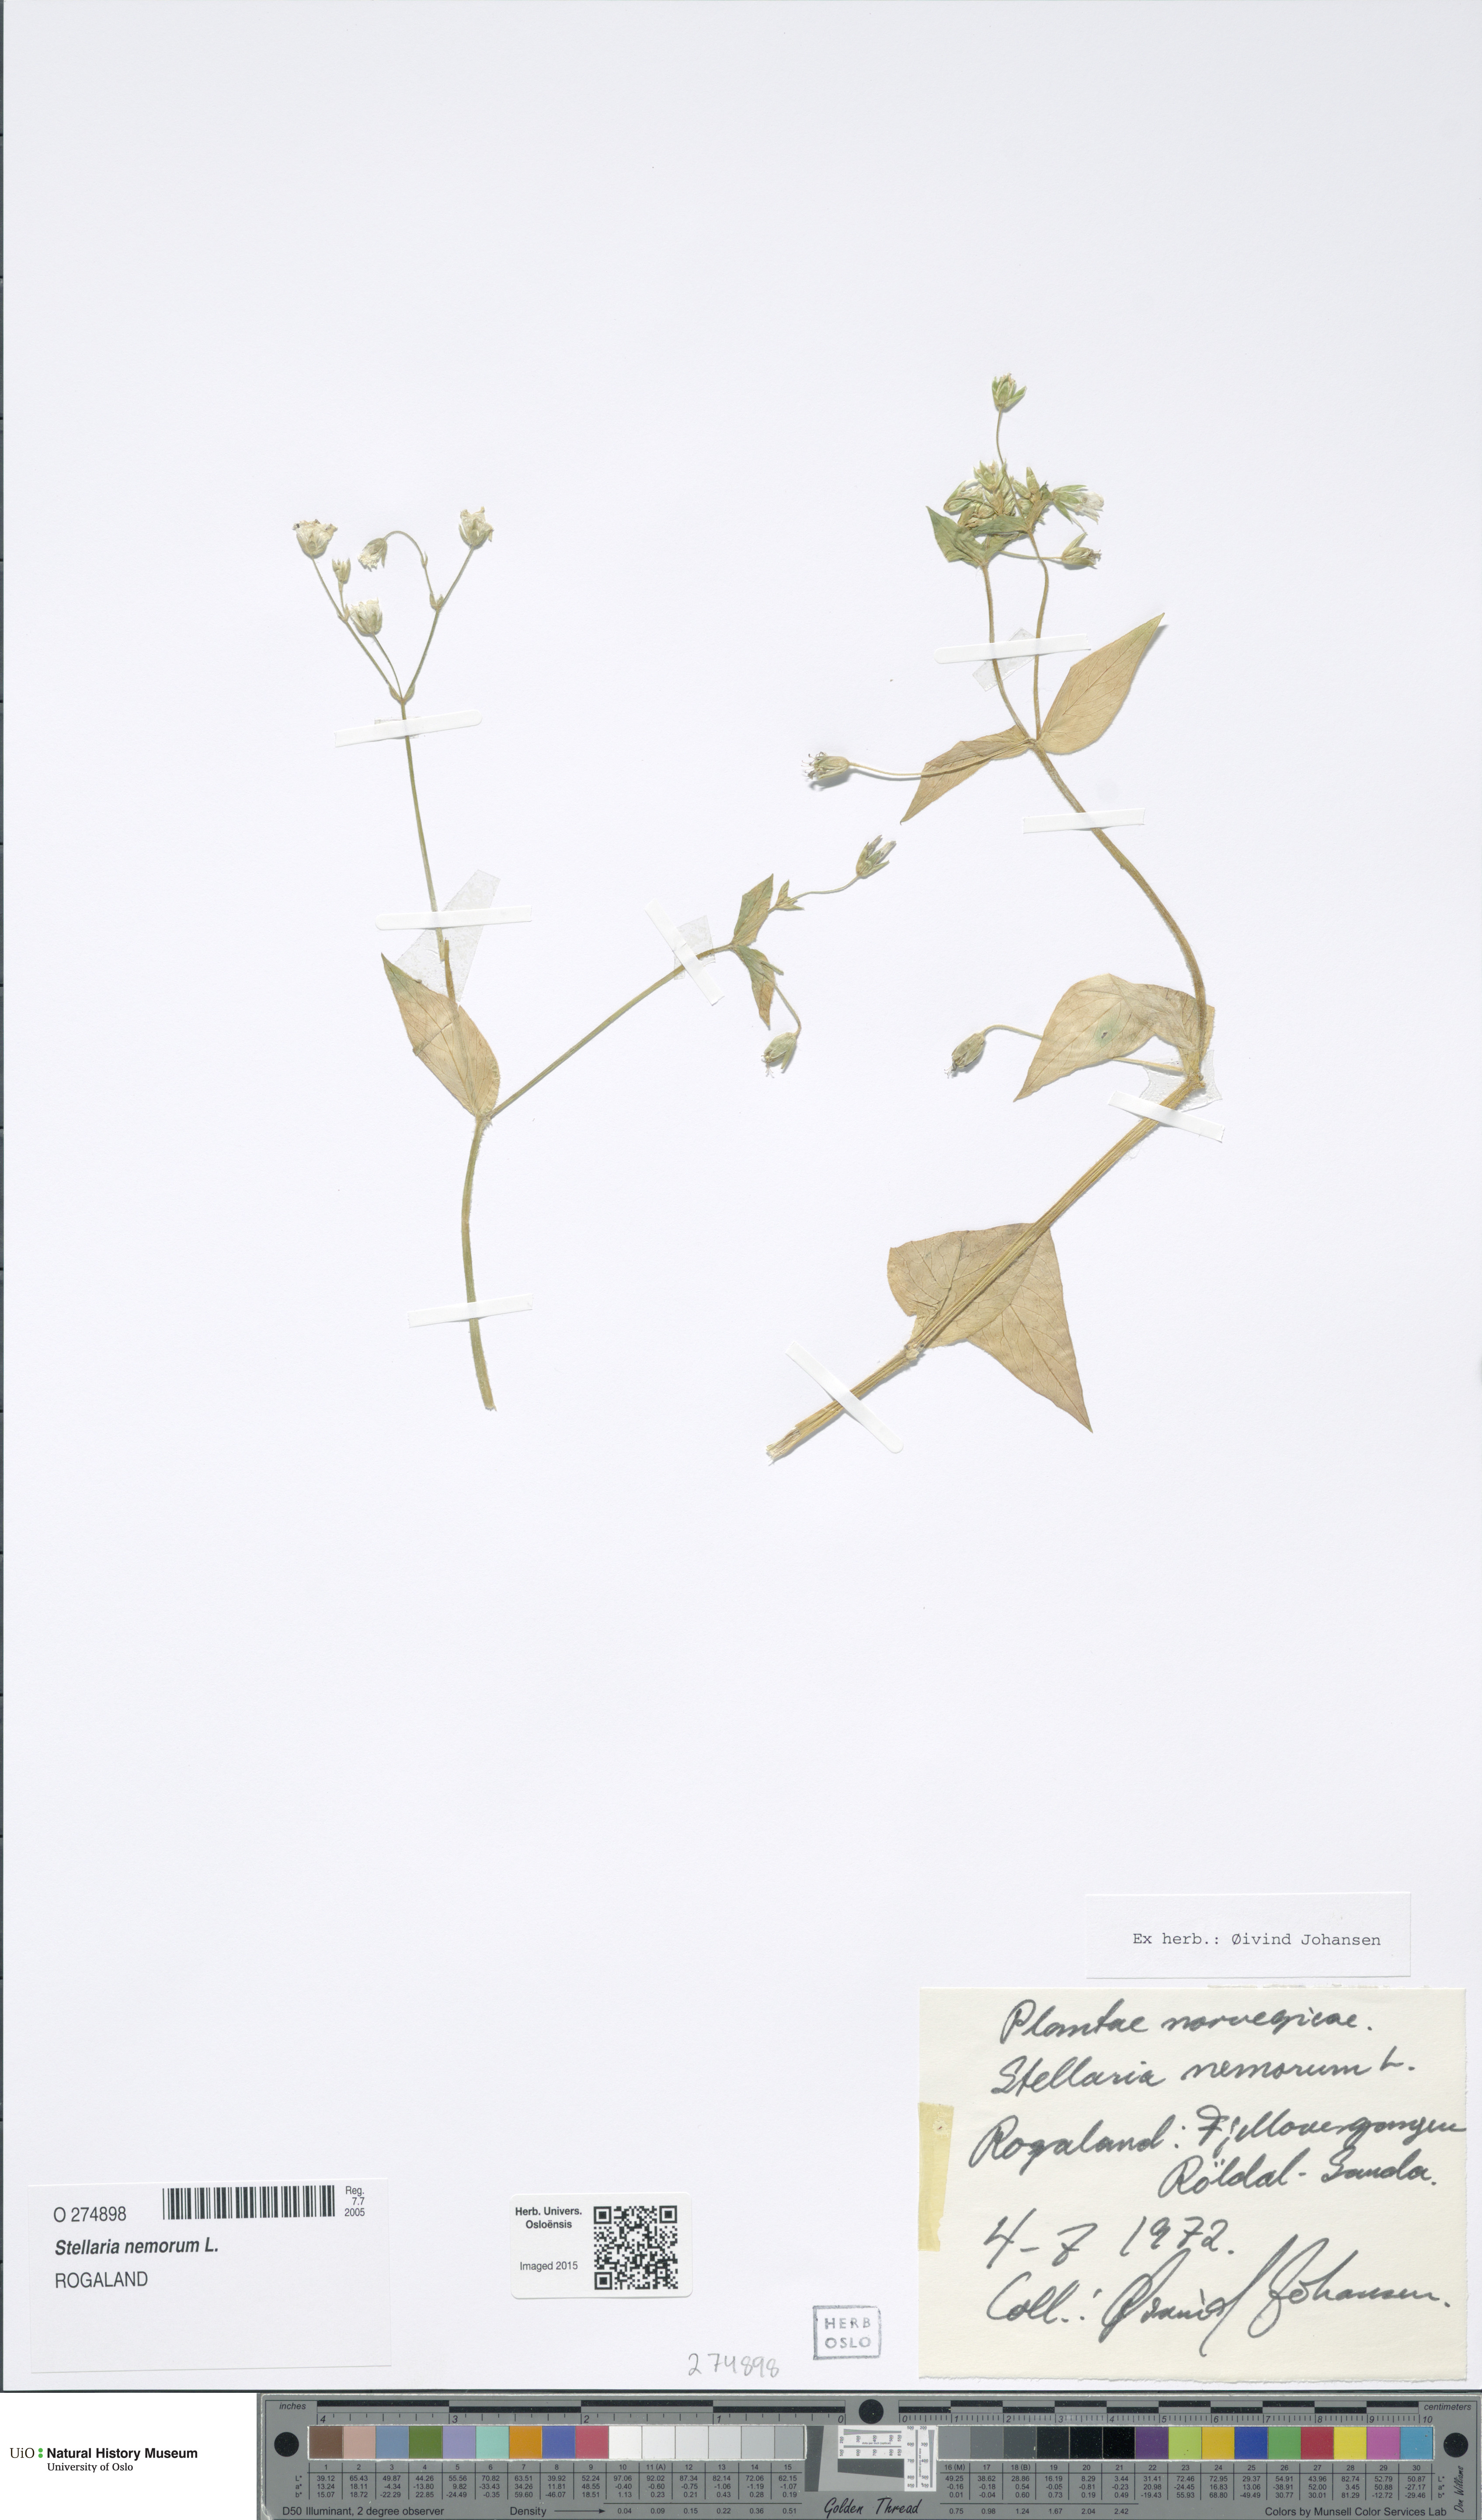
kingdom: Plantae
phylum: Tracheophyta
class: Magnoliopsida
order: Caryophyllales
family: Caryophyllaceae
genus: Stellaria
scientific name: Stellaria nemorum
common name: Wood stitchwort
